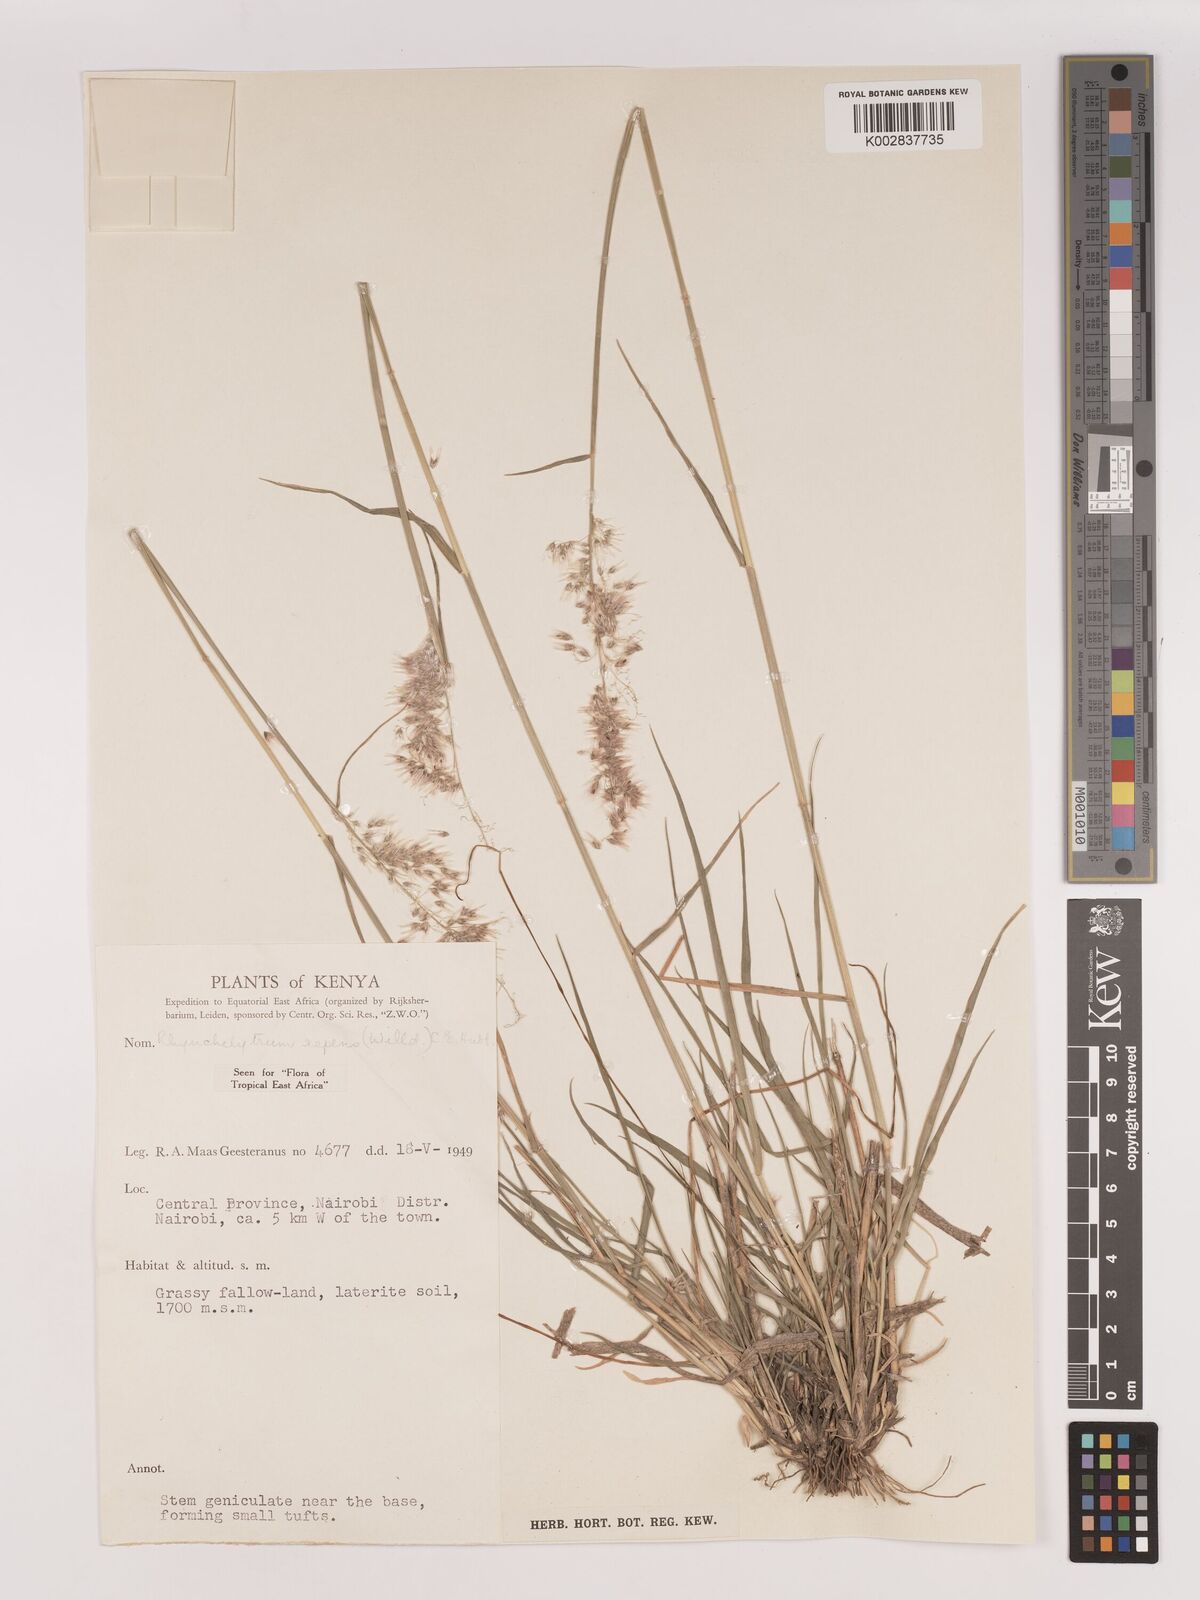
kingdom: Plantae
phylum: Tracheophyta
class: Liliopsida
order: Poales
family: Poaceae
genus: Melinis
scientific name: Melinis repens
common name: Rose natal grass
